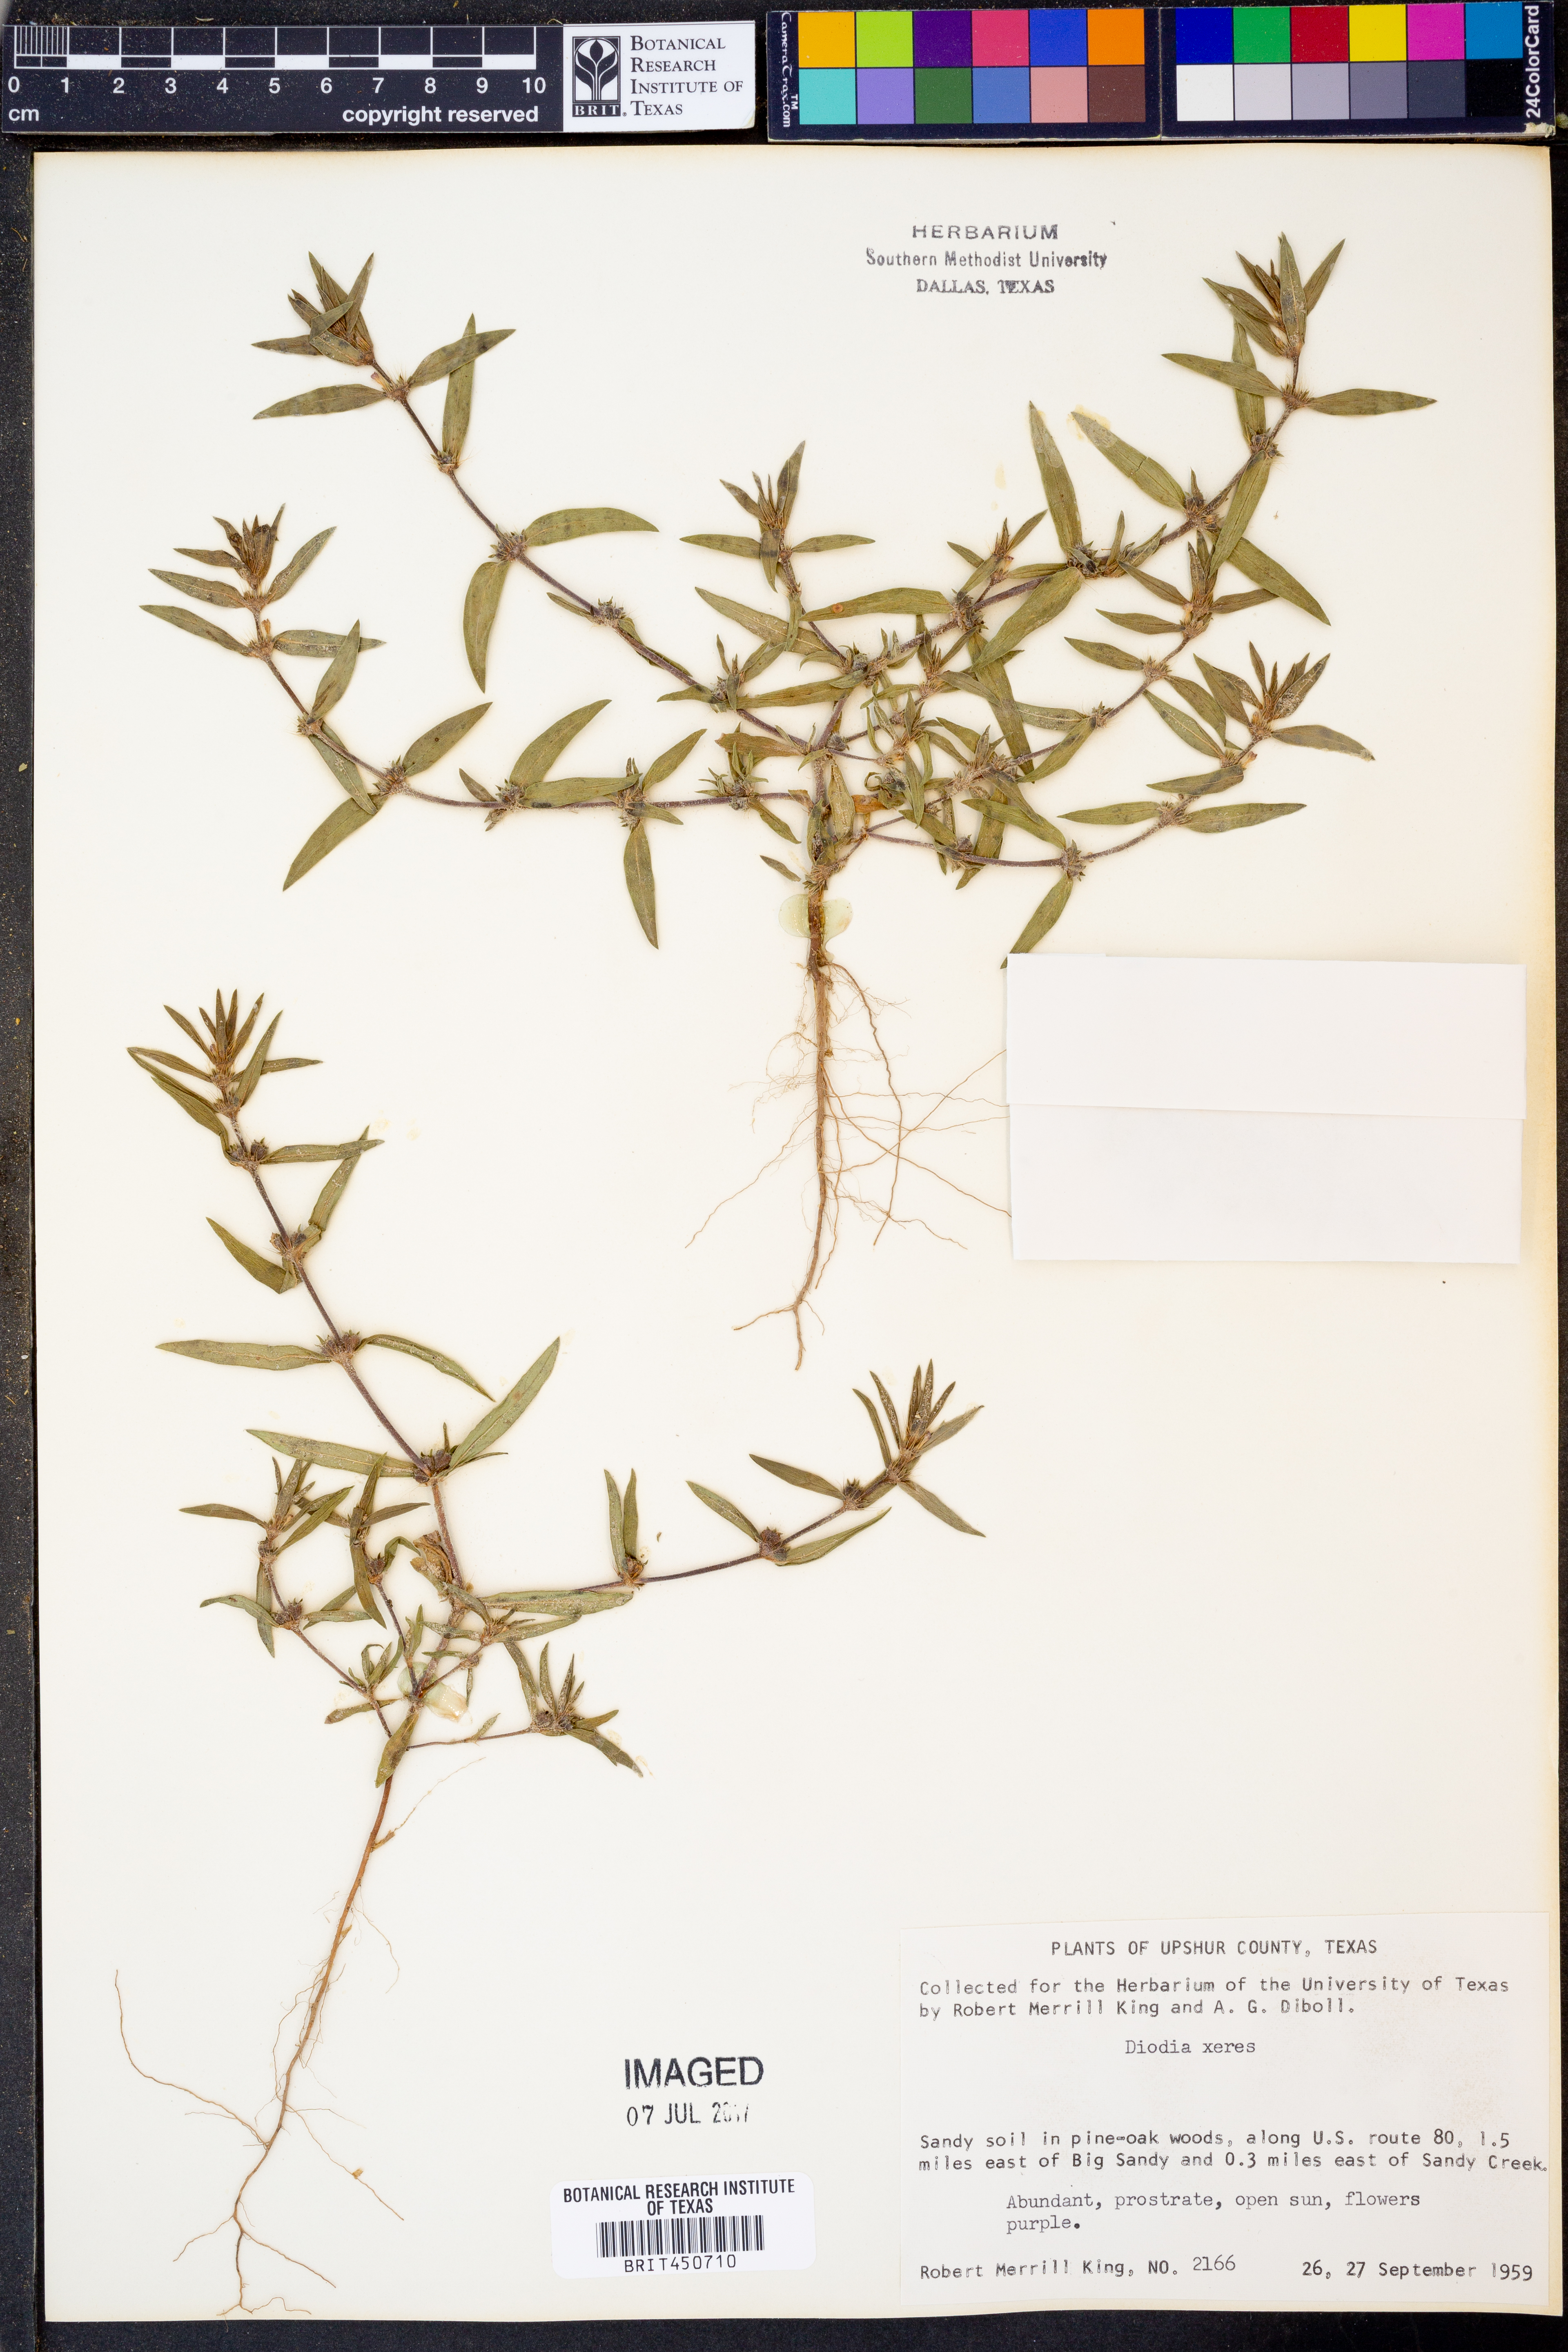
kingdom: Plantae
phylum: Tracheophyta
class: Magnoliopsida
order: Gentianales
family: Rubiaceae
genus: Hexasepalum
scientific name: Hexasepalum teres
